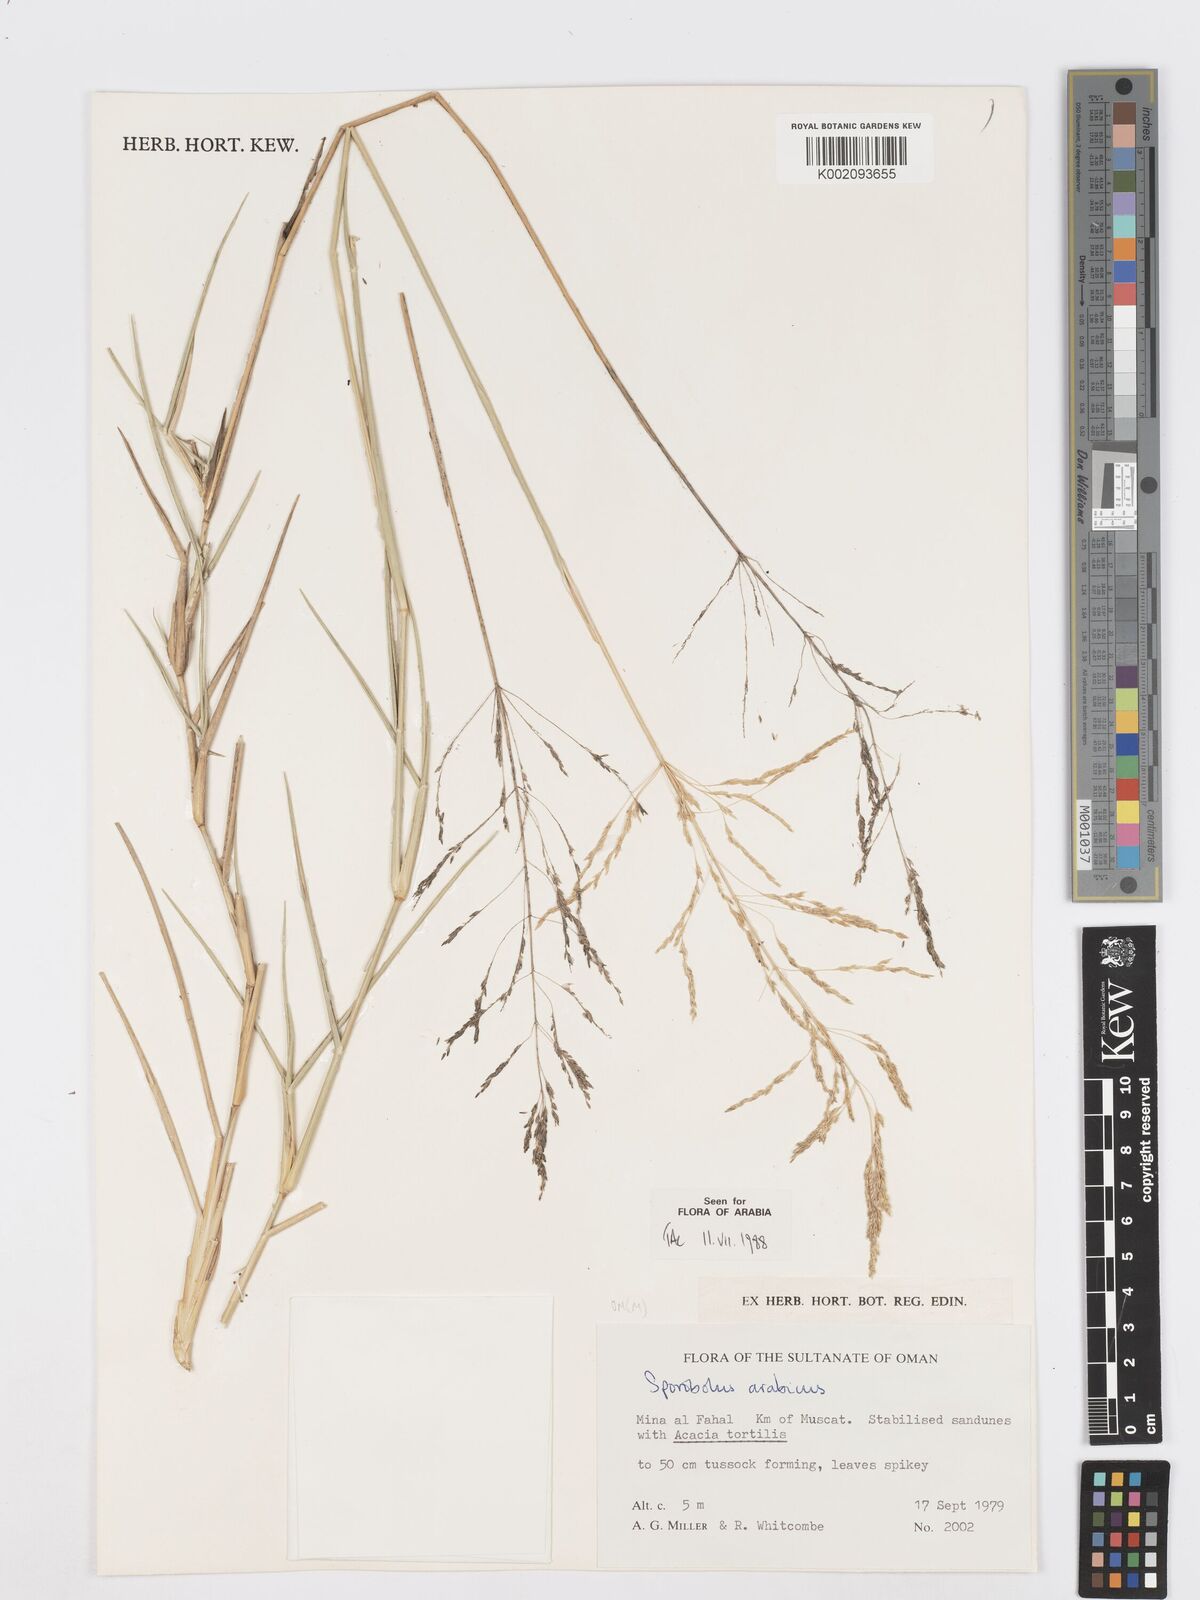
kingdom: Plantae
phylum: Tracheophyta
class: Liliopsida
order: Poales
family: Poaceae
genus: Sporobolus
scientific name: Sporobolus ioclados
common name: Pan dropseed
